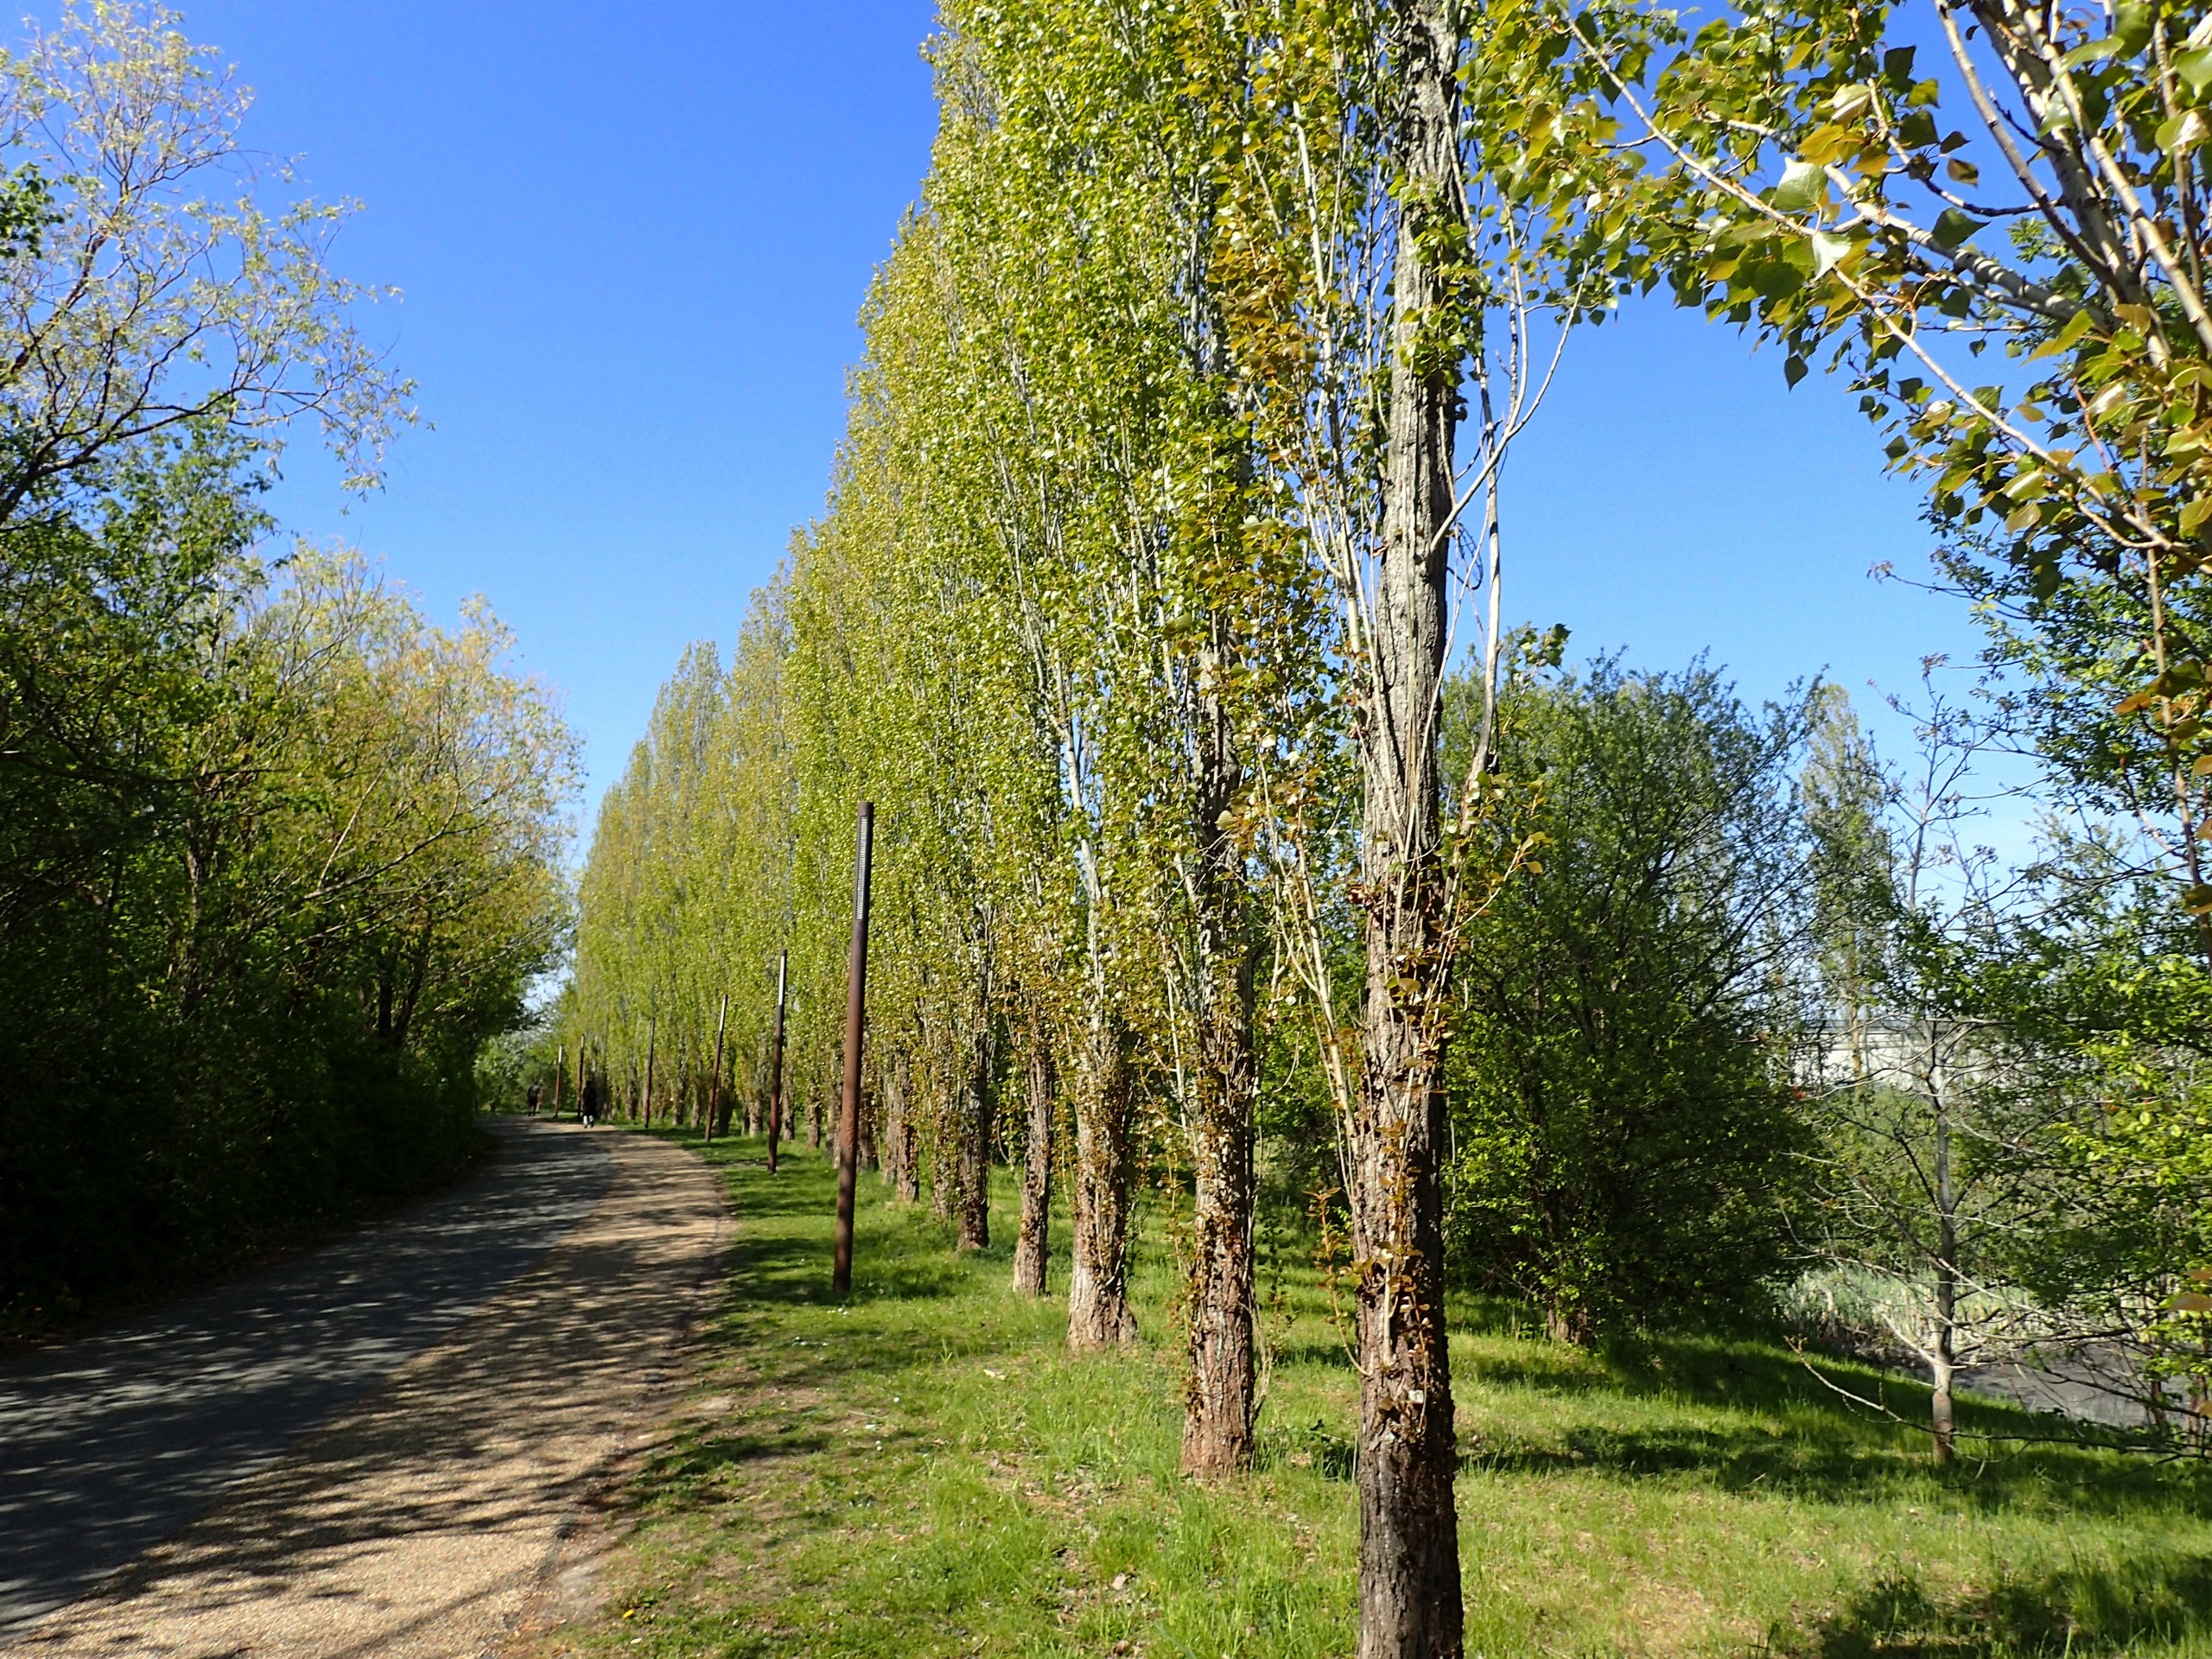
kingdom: Plantae
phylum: Tracheophyta
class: Magnoliopsida
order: Malpighiales
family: Salicaceae
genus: Populus
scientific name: Populus nigra
